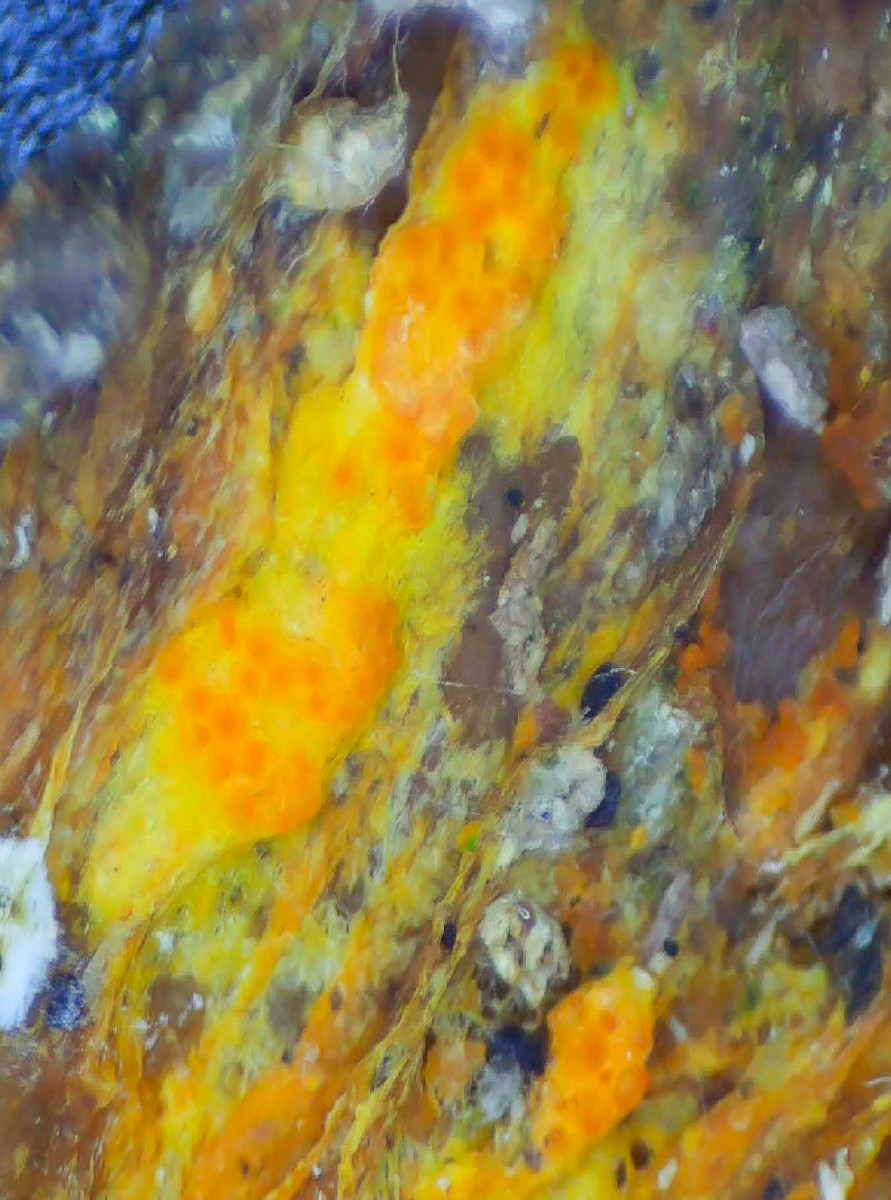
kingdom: Fungi
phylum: Ascomycota
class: Sordariomycetes
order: Hypocreales
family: Hypocreaceae
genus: Hypomyces
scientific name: Hypomyces aurantius
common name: almindelig snylteskorpe
